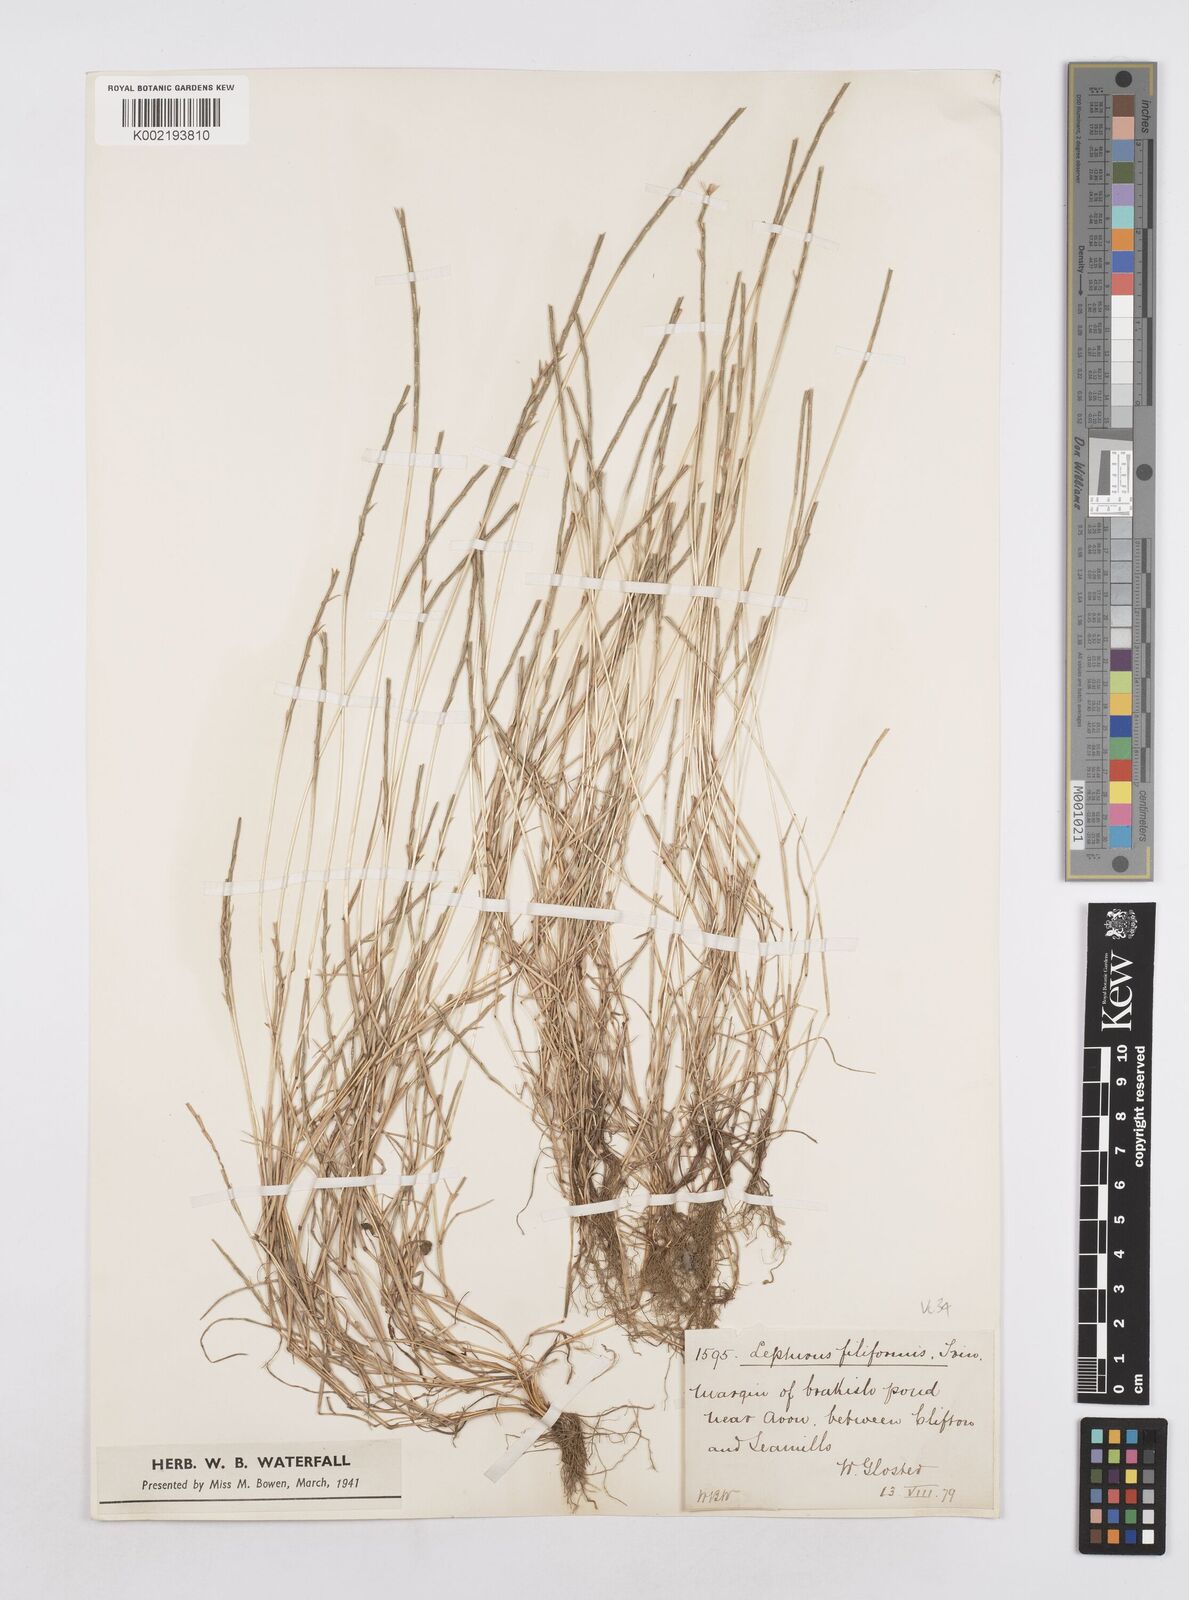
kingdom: Plantae
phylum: Tracheophyta
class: Liliopsida
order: Poales
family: Poaceae
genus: Parapholis
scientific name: Parapholis strigosa
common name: Hard-grass
